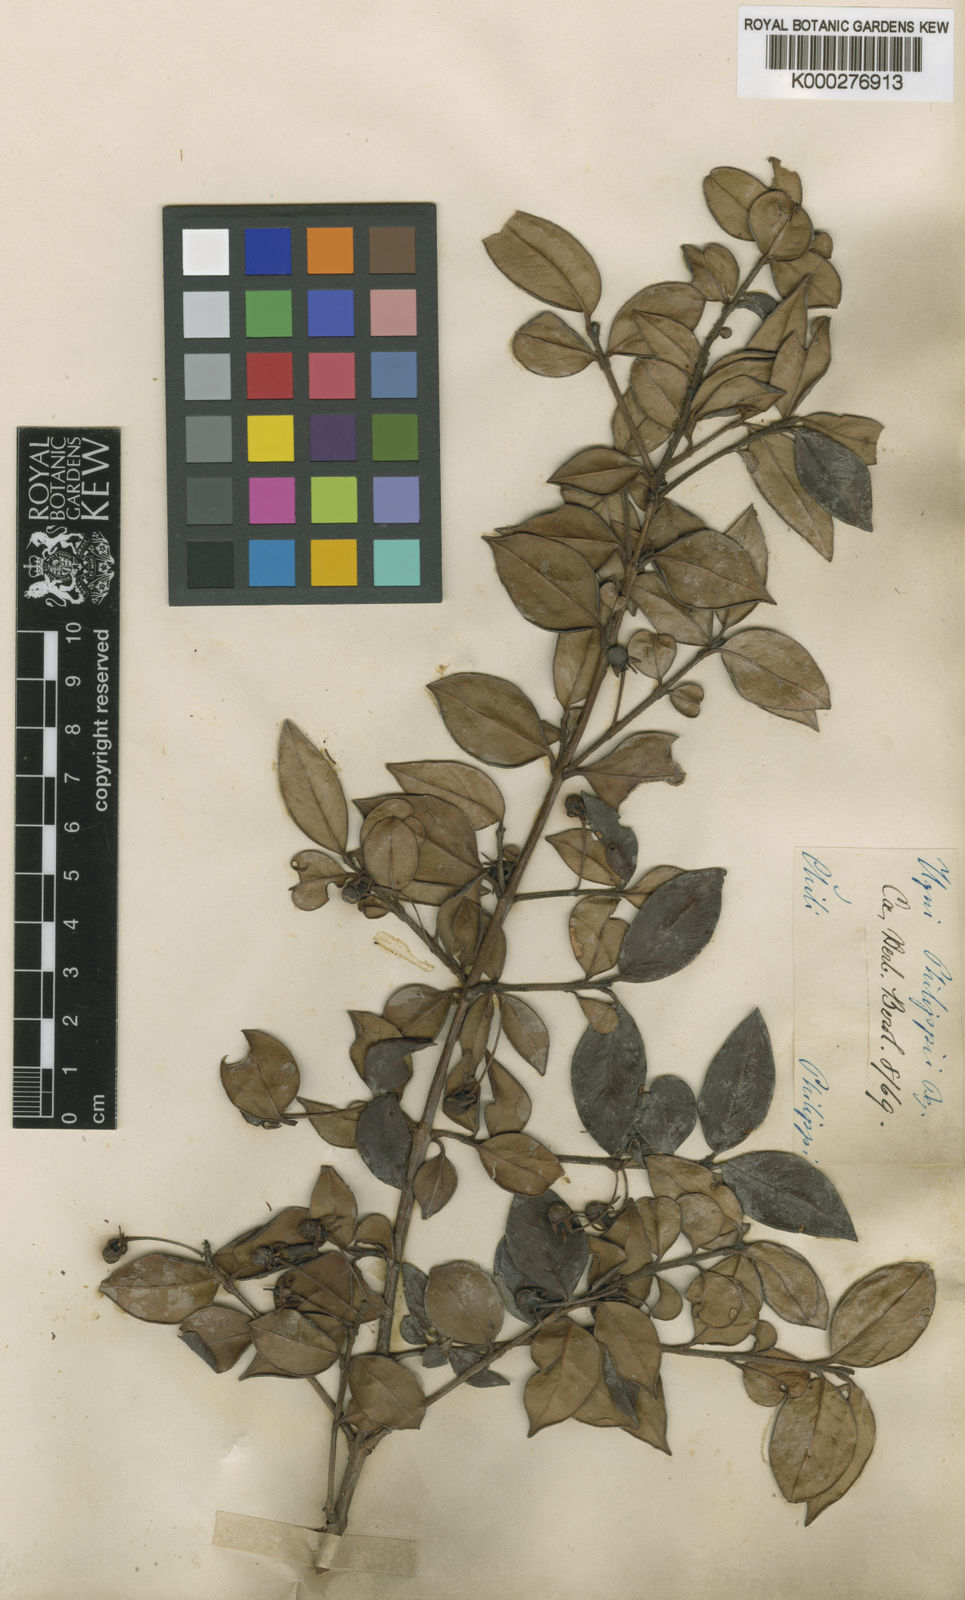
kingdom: Plantae
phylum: Tracheophyta
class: Magnoliopsida
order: Myrtales
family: Myrtaceae
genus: Ugni
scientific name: Ugni molinae
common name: Chilean-guava
